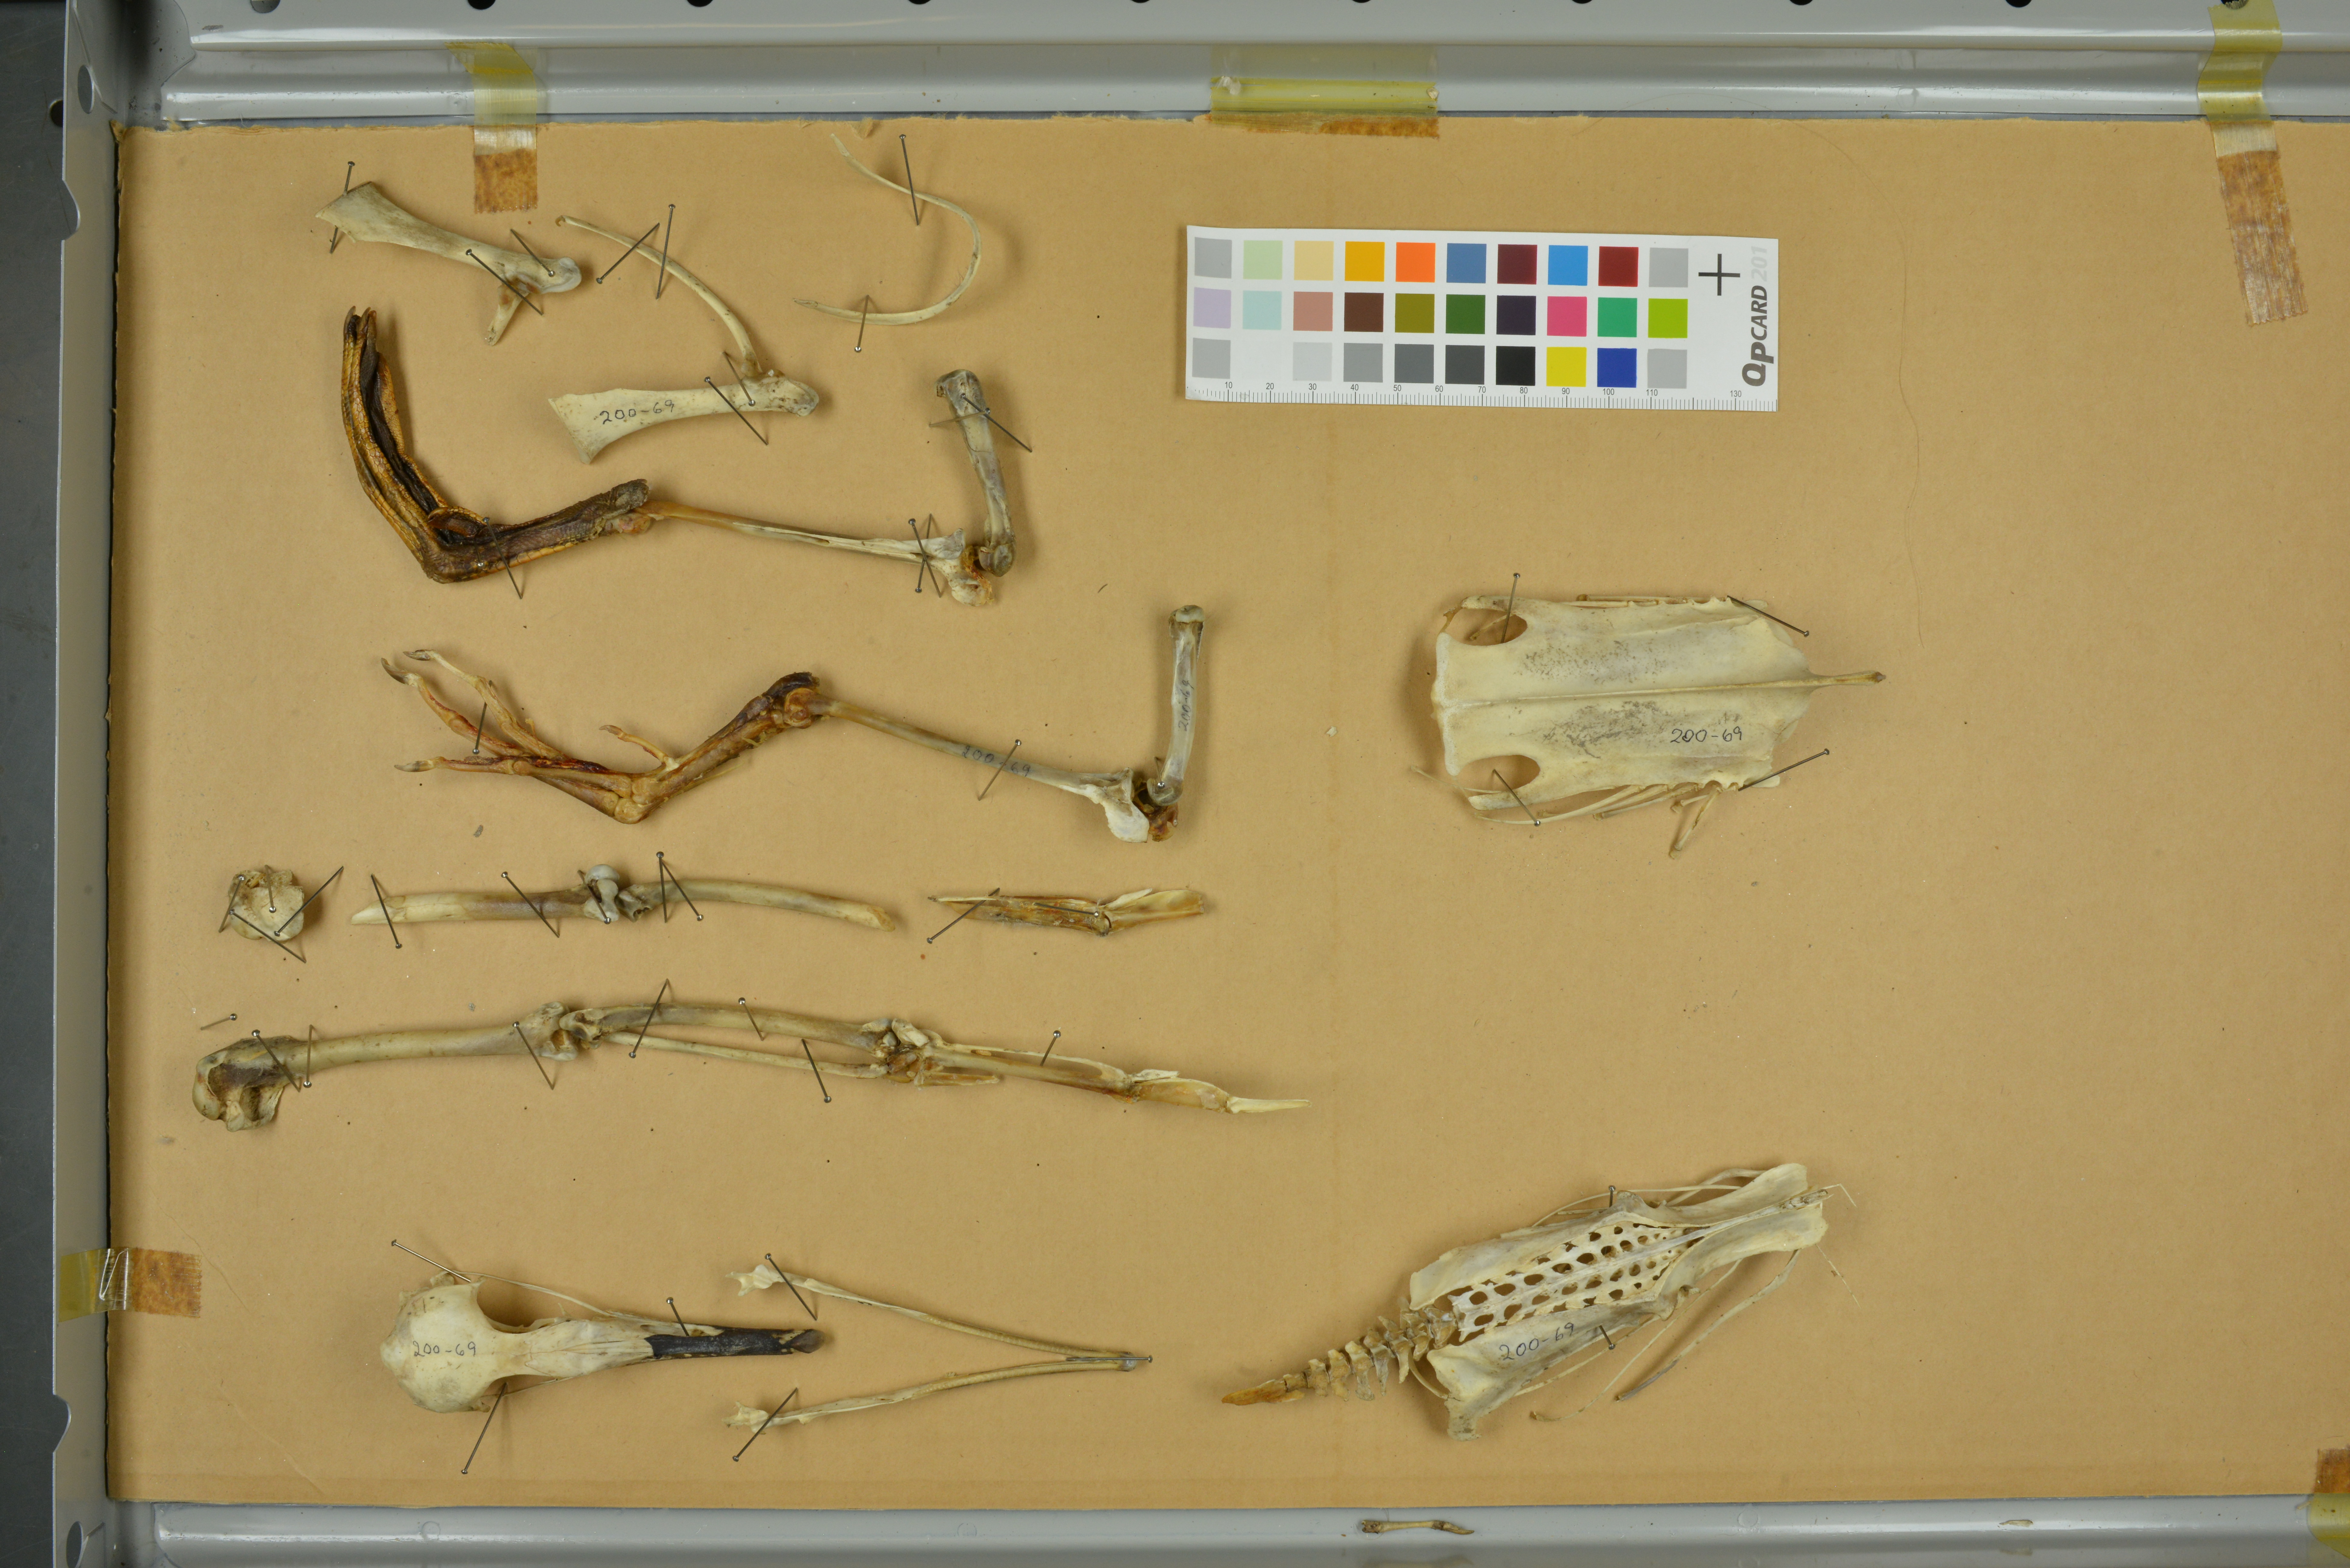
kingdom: Animalia
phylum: Chordata
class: Aves
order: Anseriformes
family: Anatidae
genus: Mergus
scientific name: Mergus serrator
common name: Red-breasted merganser
